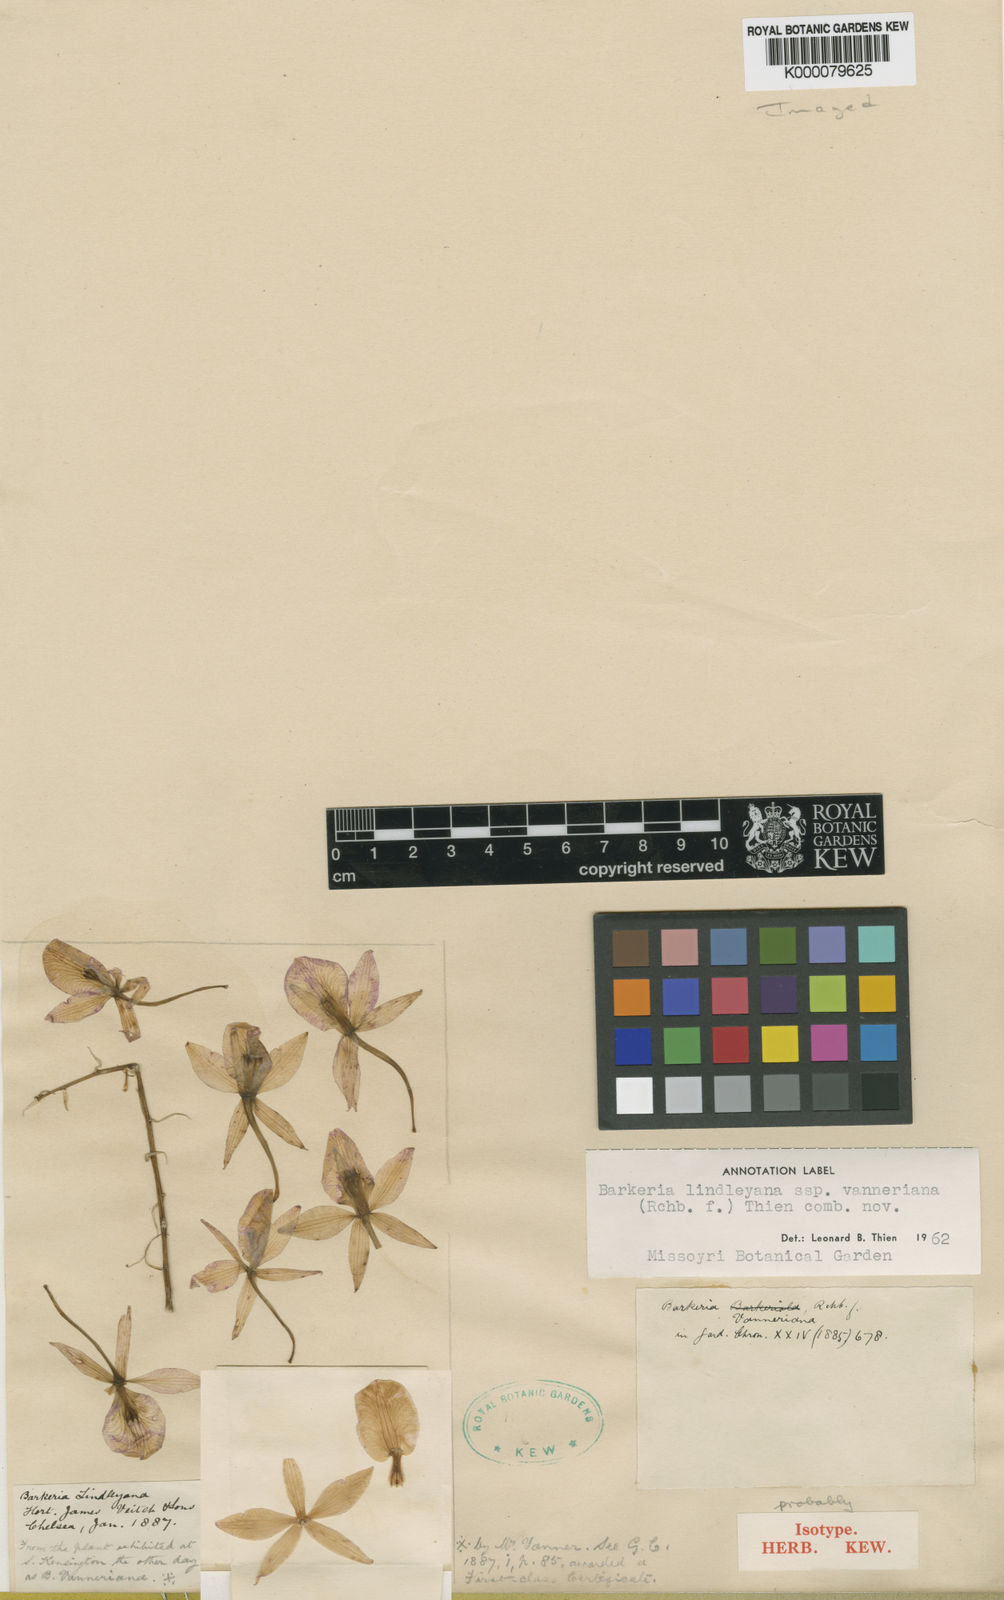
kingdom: Plantae
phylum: Tracheophyta
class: Liliopsida
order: Asparagales
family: Orchidaceae
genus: Barkeria
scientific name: Barkeria lindleyana
